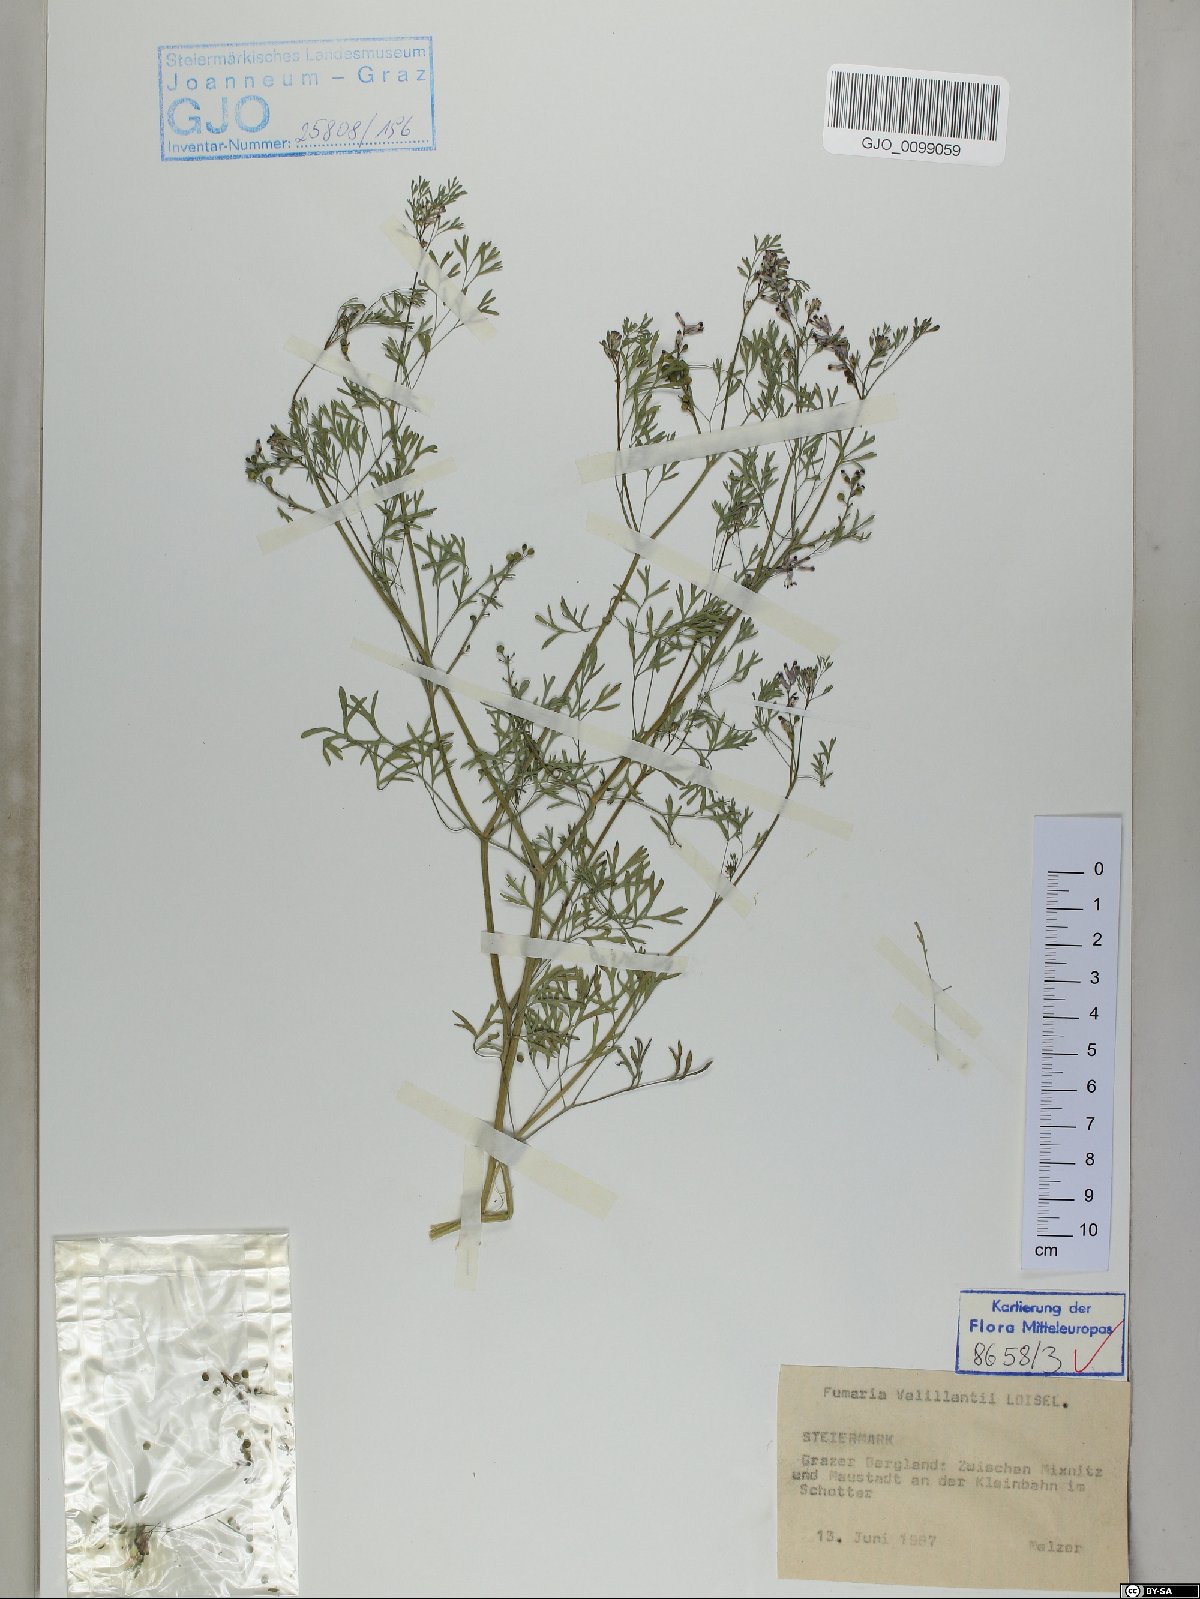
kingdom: Plantae
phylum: Tracheophyta
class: Magnoliopsida
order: Ranunculales
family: Papaveraceae
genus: Fumaria
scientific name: Fumaria vaillantii
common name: Few-flowered fumitory
